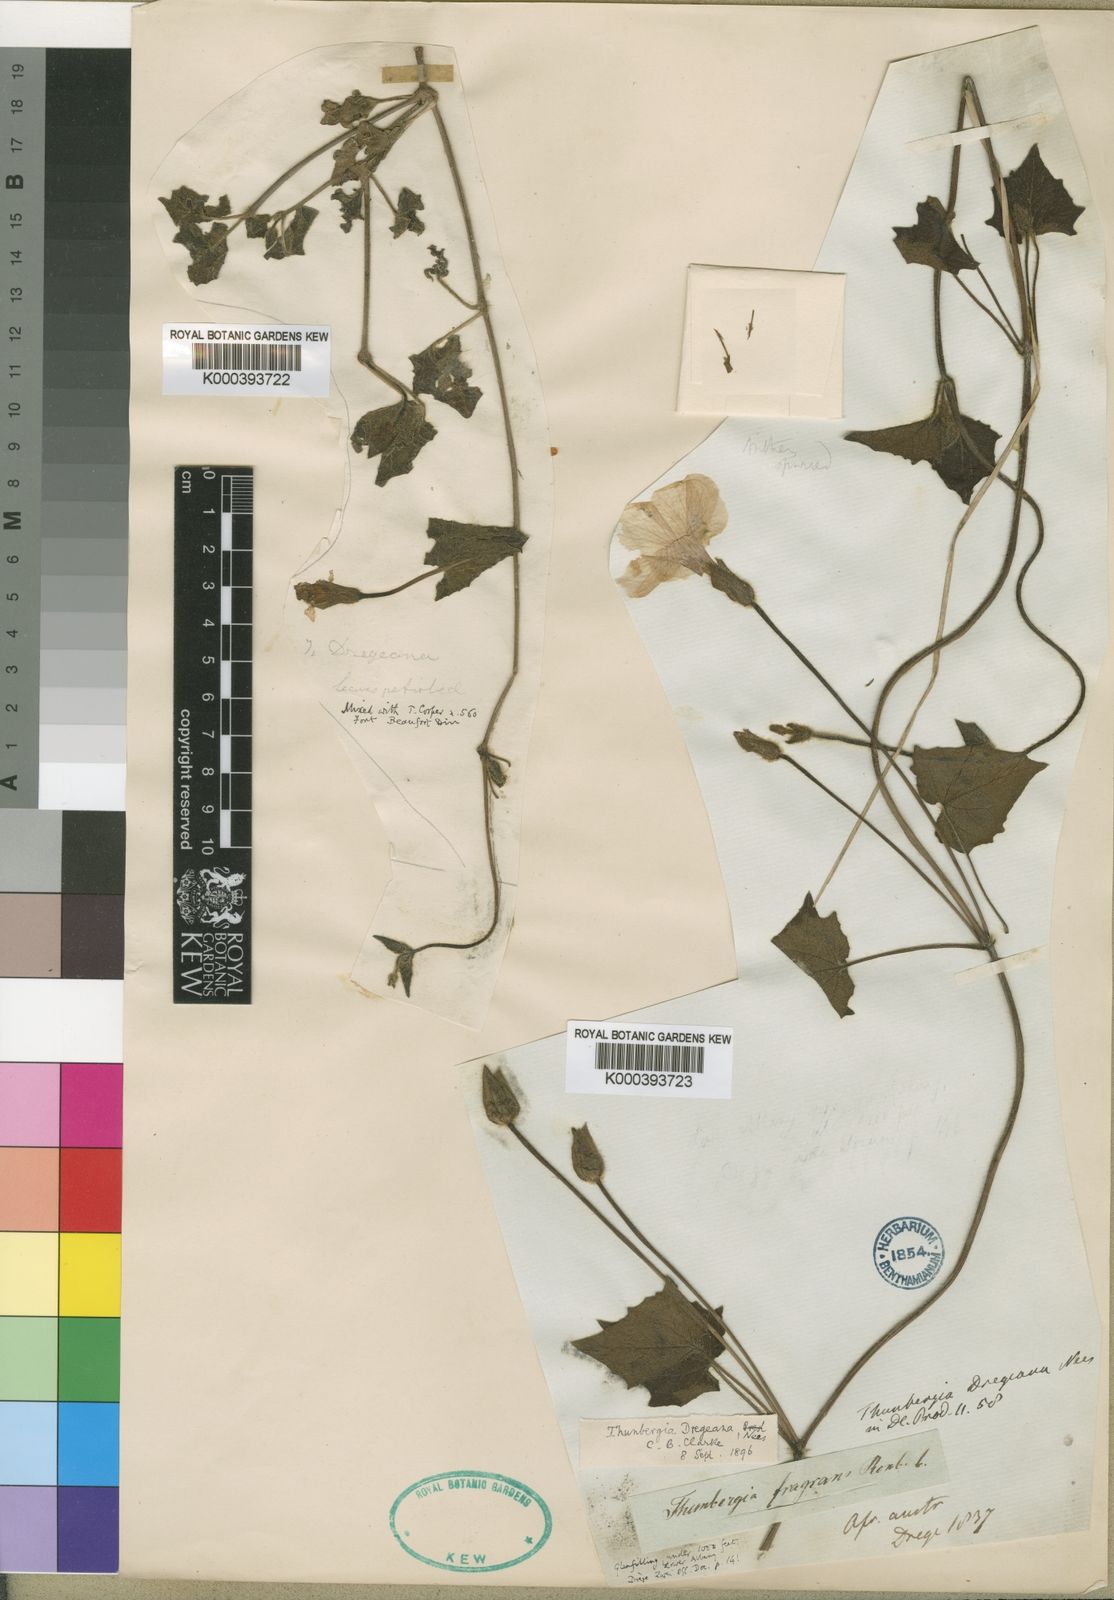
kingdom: Plantae
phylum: Tracheophyta
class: Magnoliopsida
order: Lamiales
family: Acanthaceae
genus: Thunbergia
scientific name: Thunbergia
